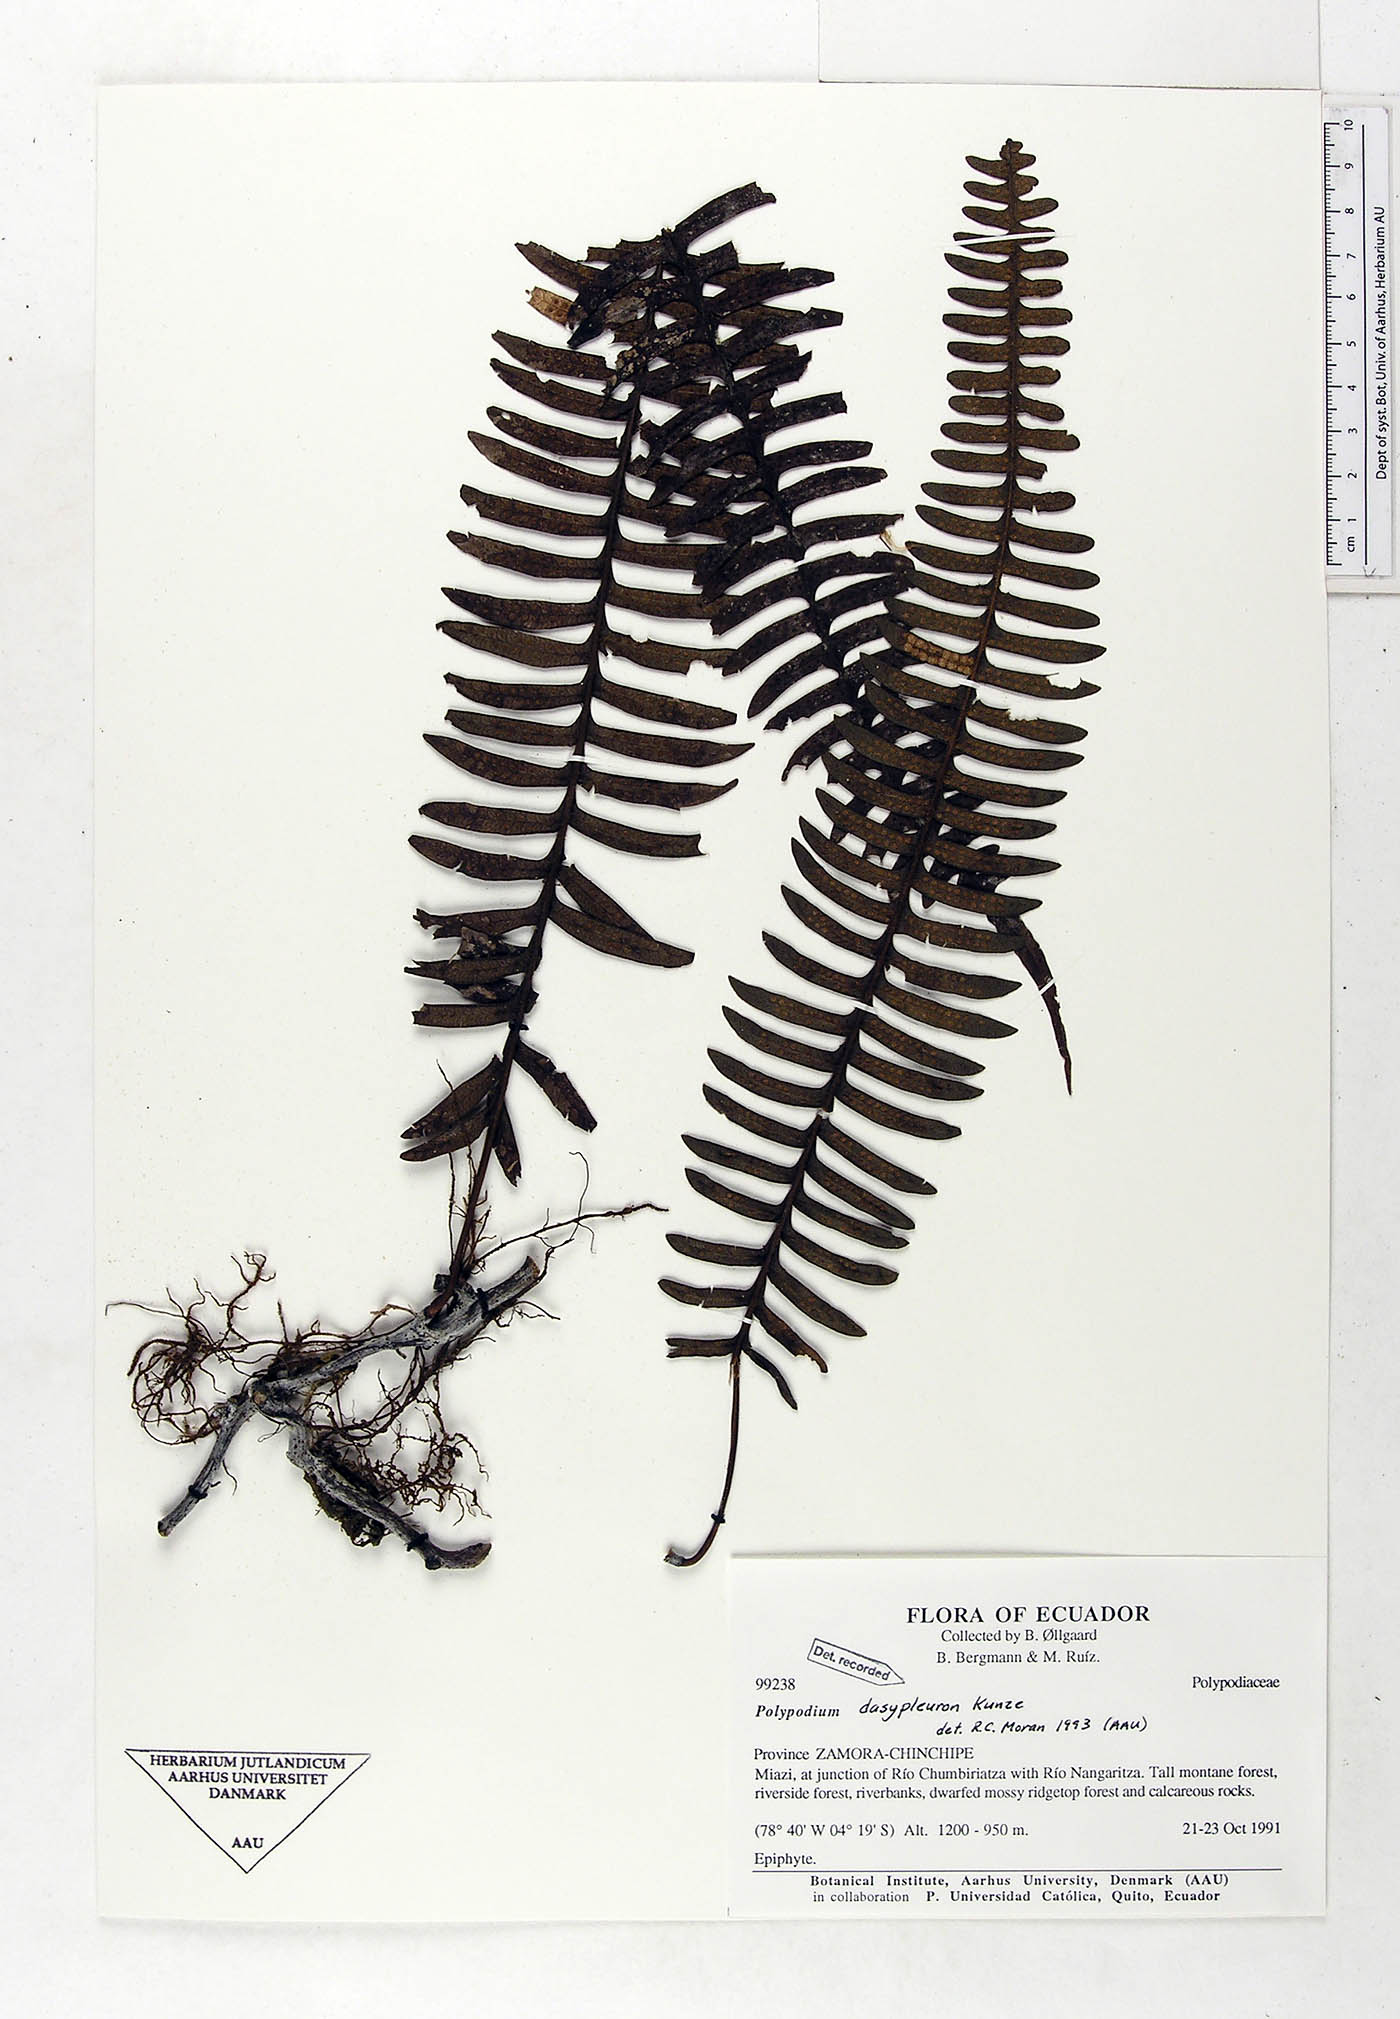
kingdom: Plantae
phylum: Tracheophyta
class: Polypodiopsida
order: Polypodiales
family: Polypodiaceae
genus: Serpocaulon
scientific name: Serpocaulon dasypleuron
